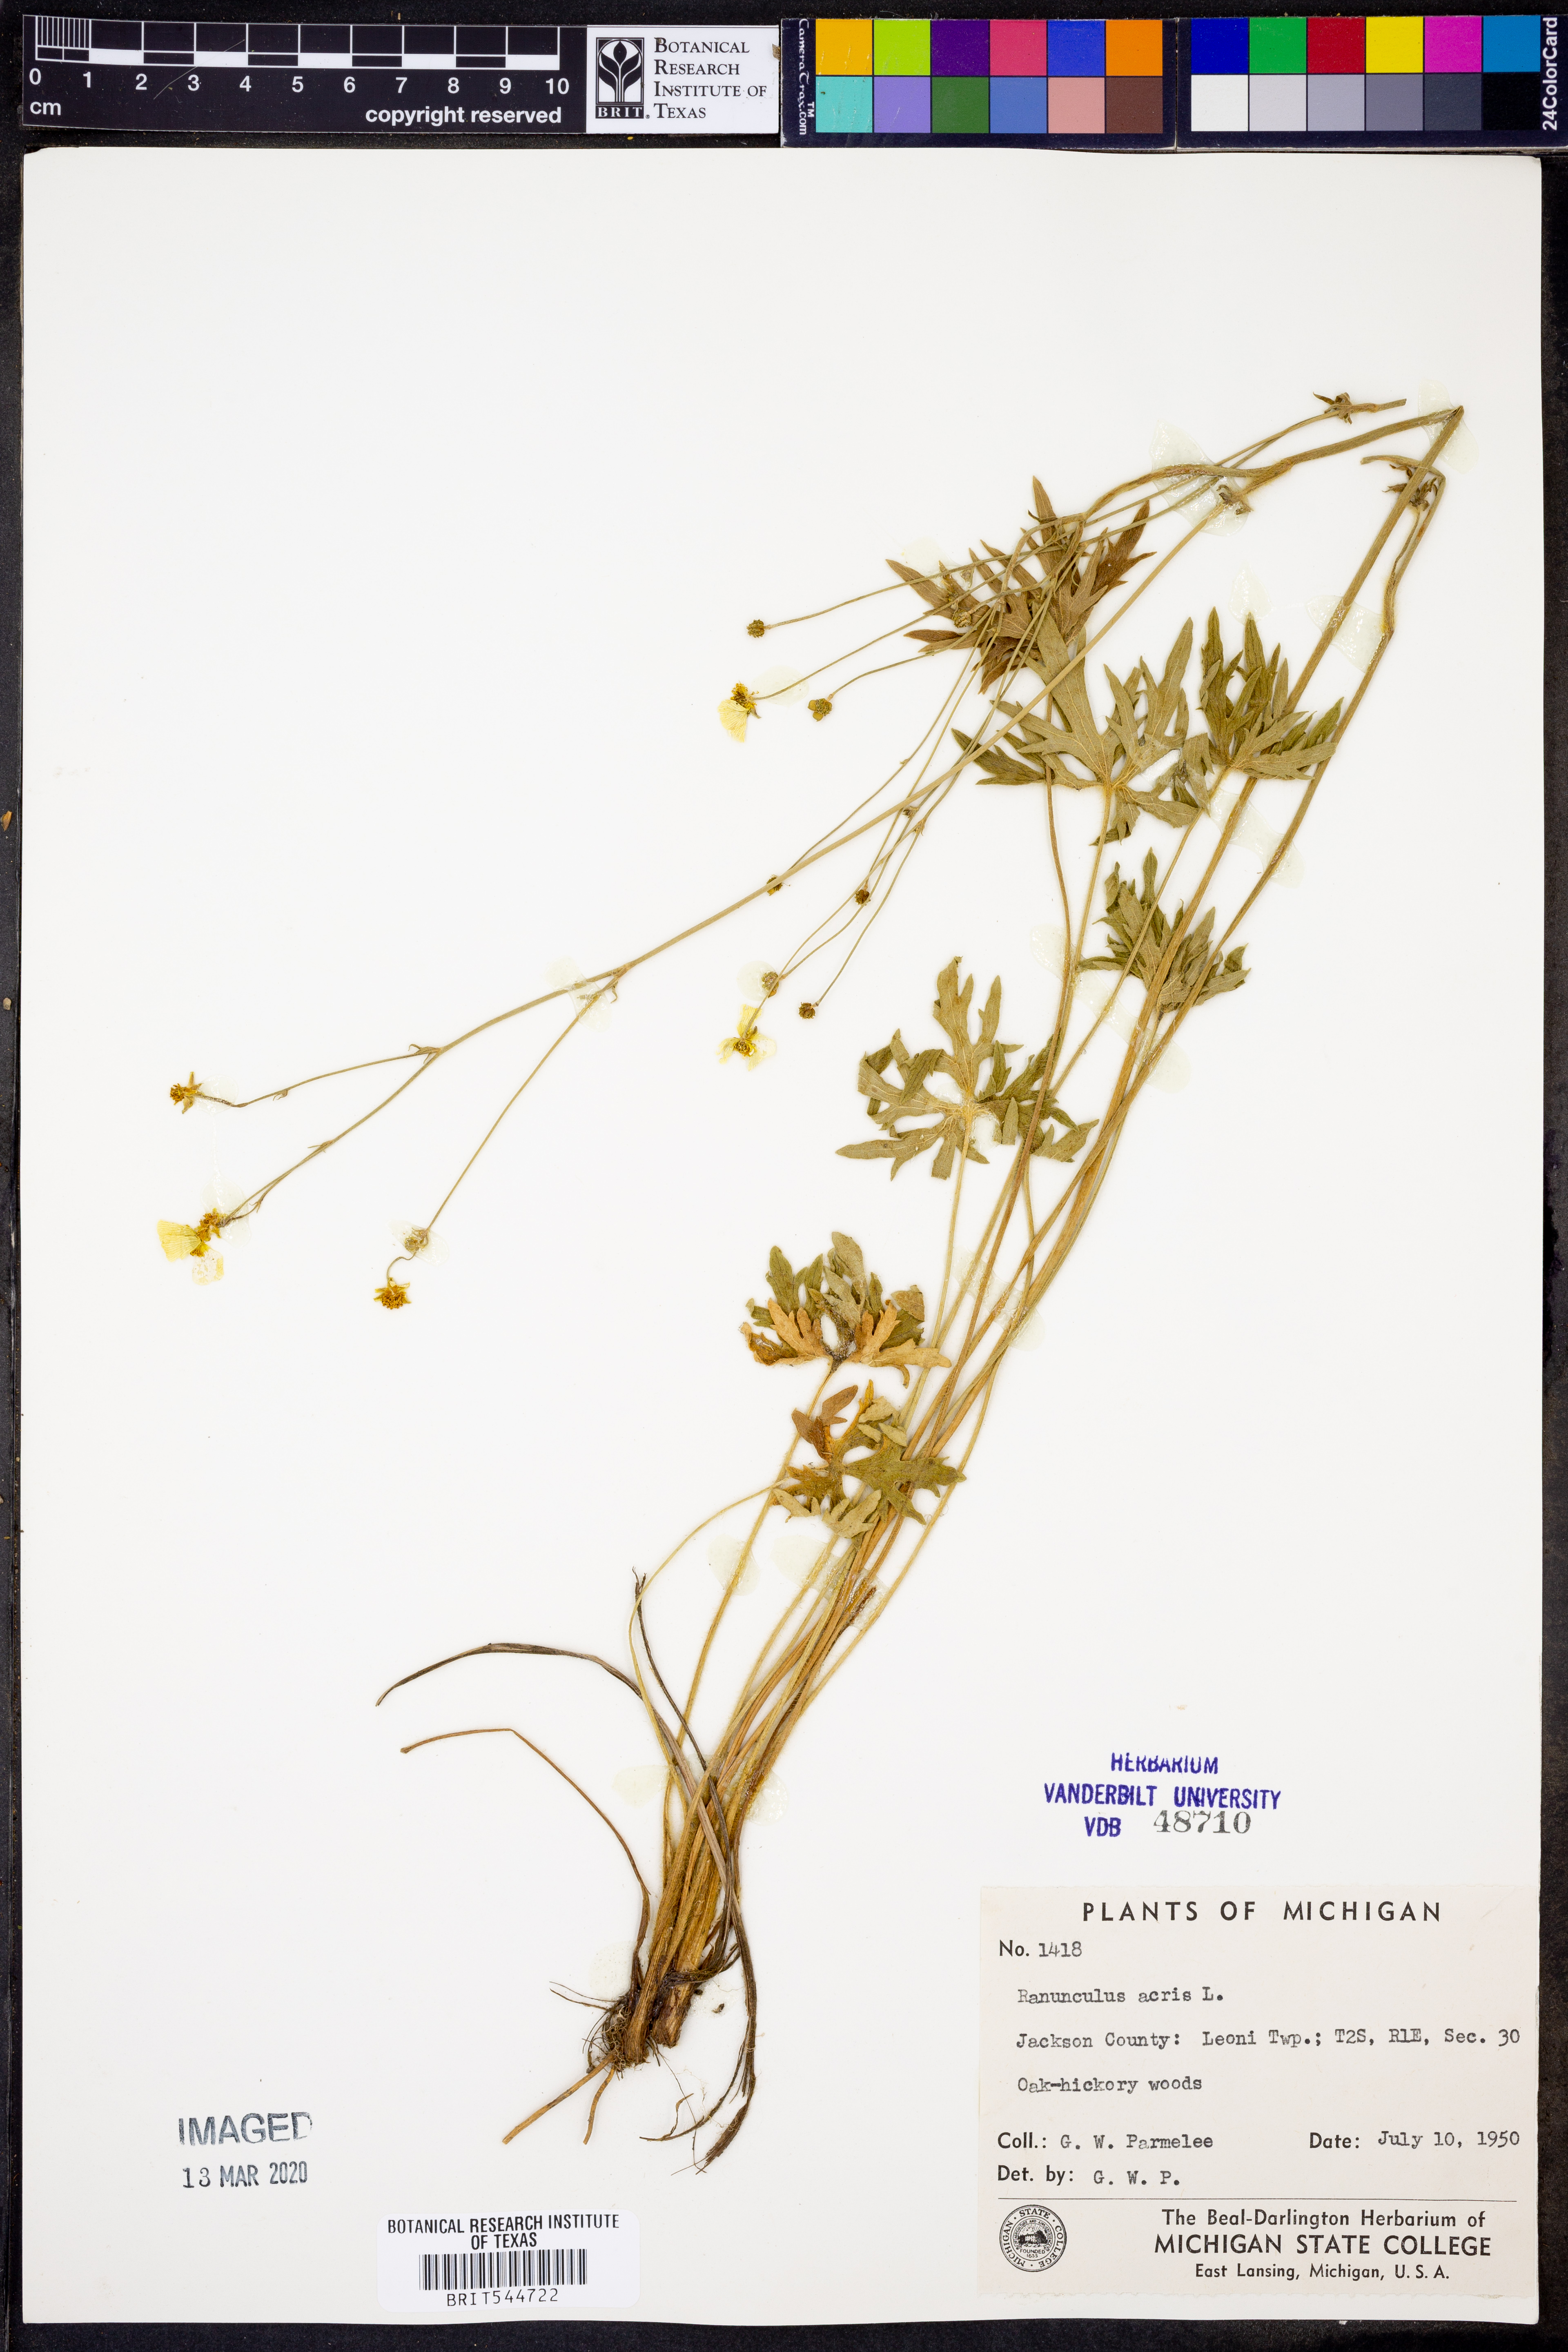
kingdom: Plantae
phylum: Tracheophyta
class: Magnoliopsida
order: Ranunculales
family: Ranunculaceae
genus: Ranunculus
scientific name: Ranunculus acris
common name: Meadow buttercup
